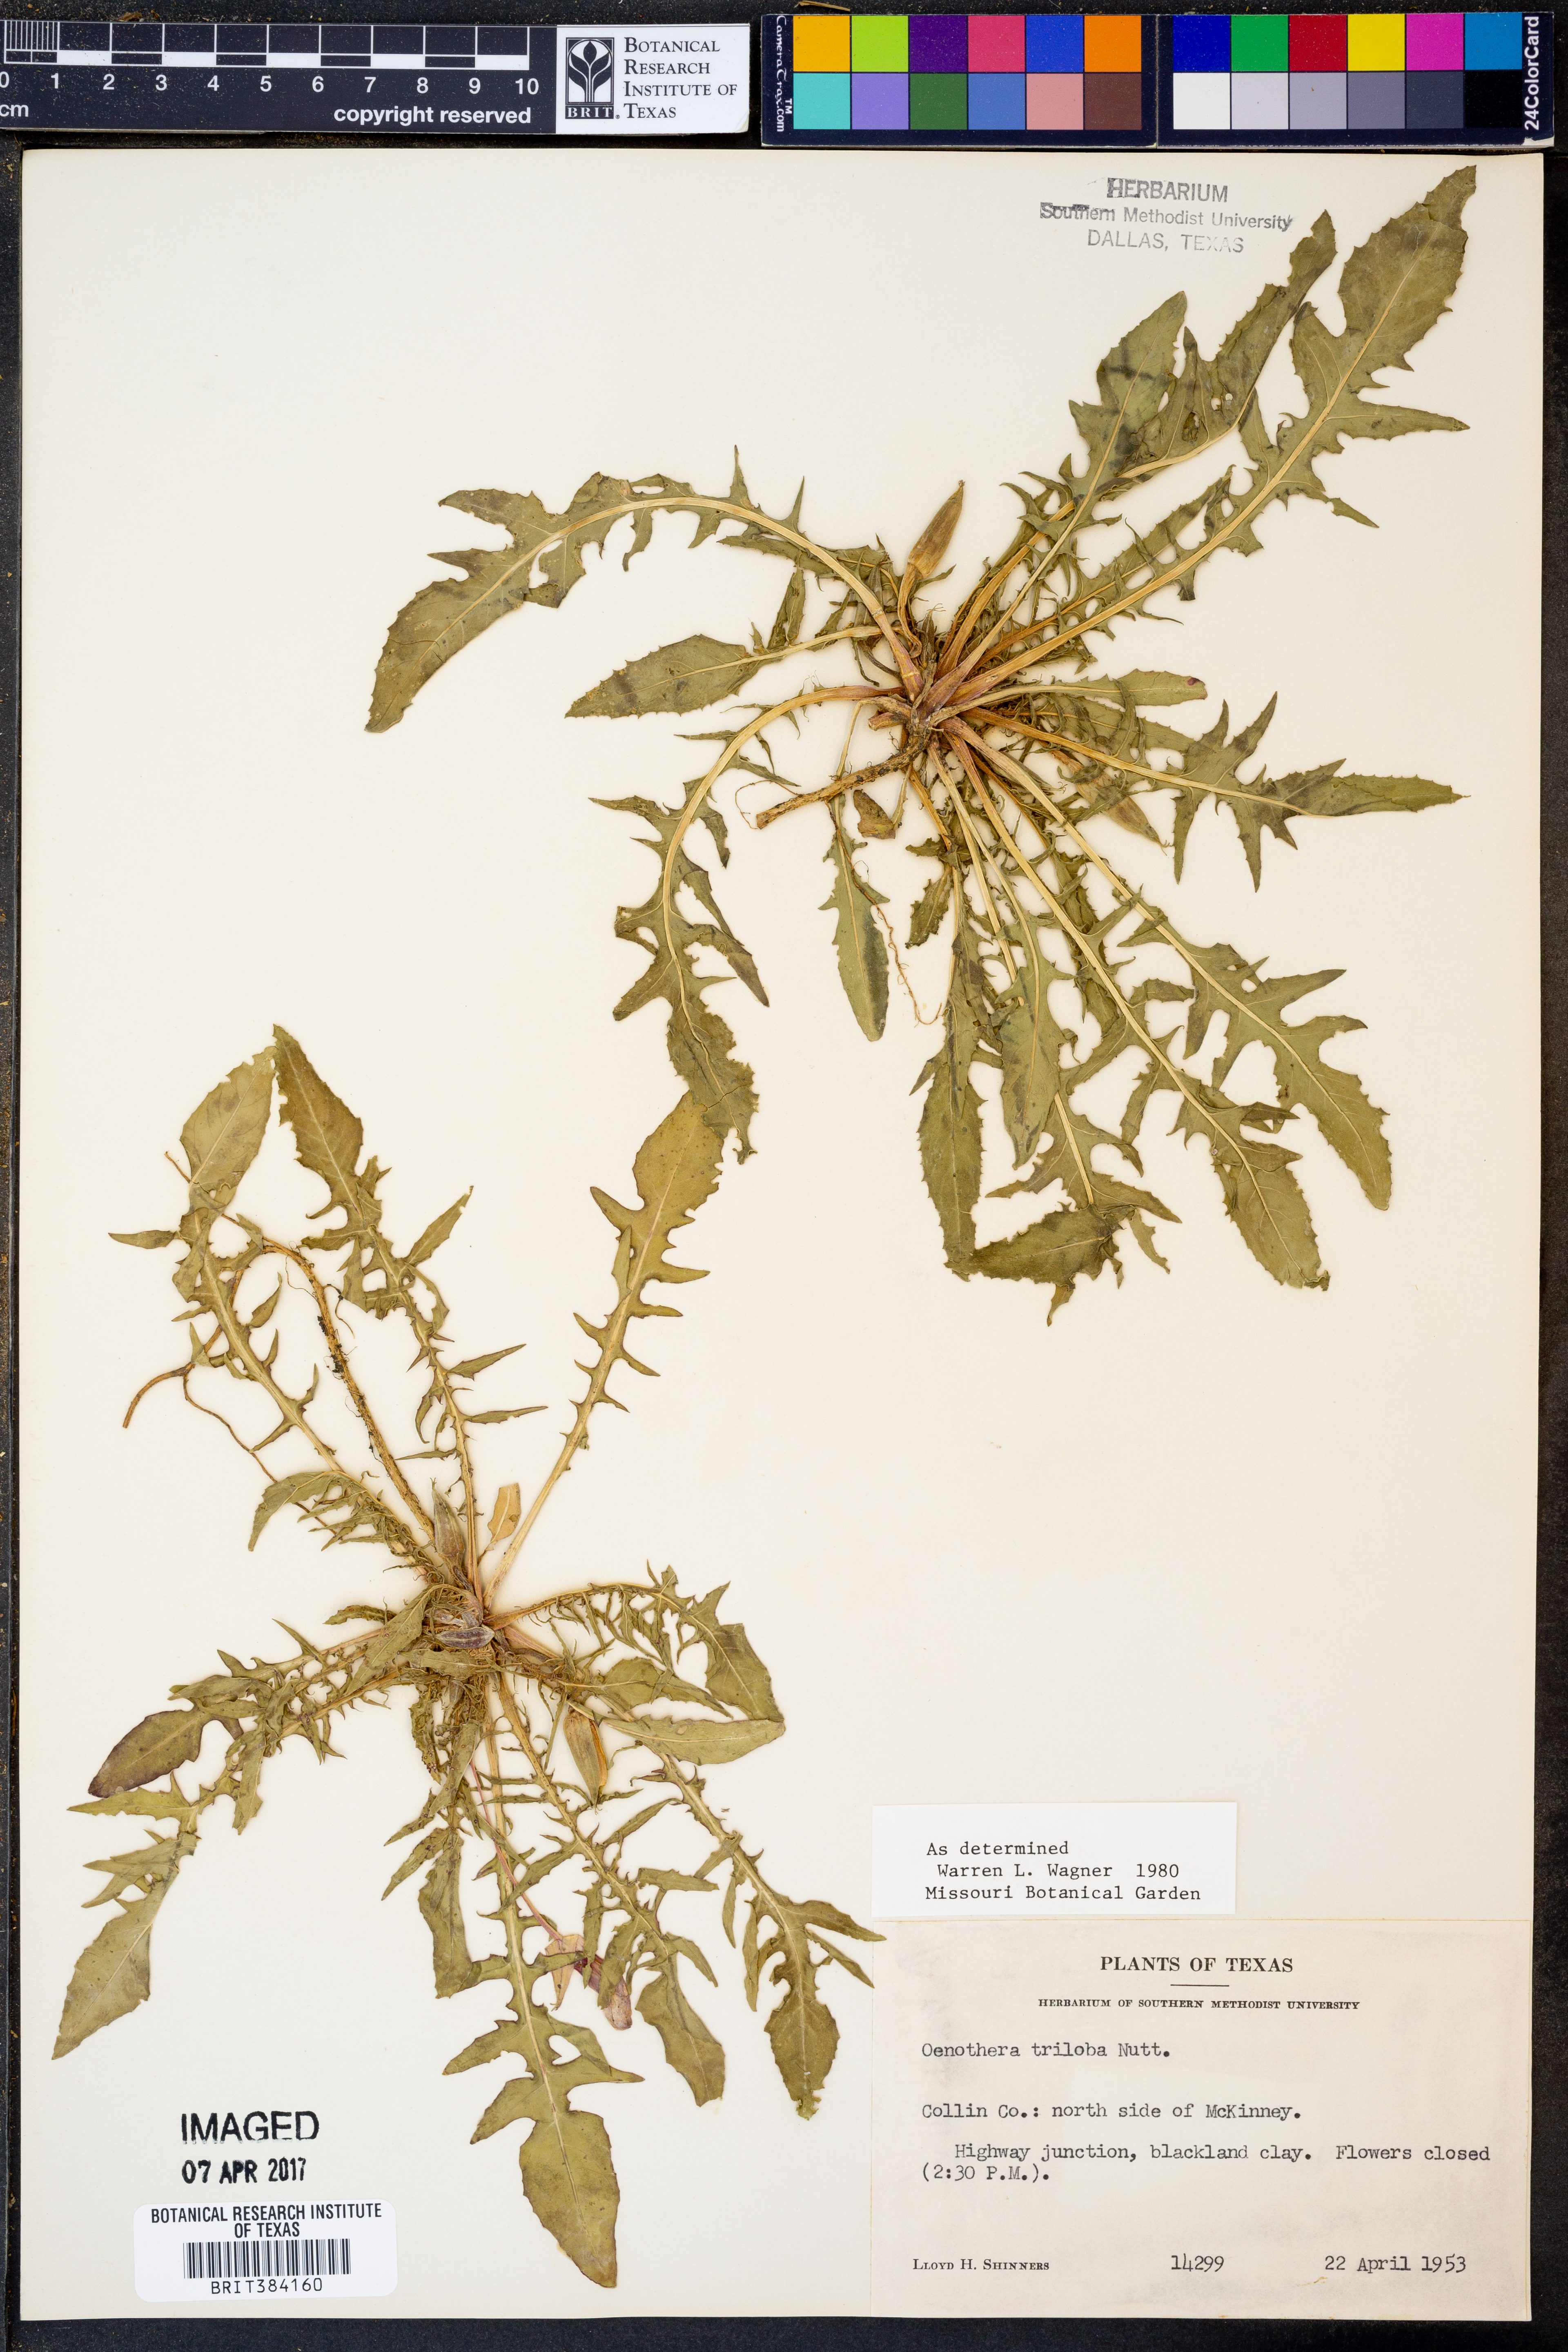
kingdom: Plantae
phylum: Tracheophyta
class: Magnoliopsida
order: Myrtales
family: Onagraceae
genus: Oenothera
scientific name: Oenothera triloba
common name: Sessile evening-primrose
